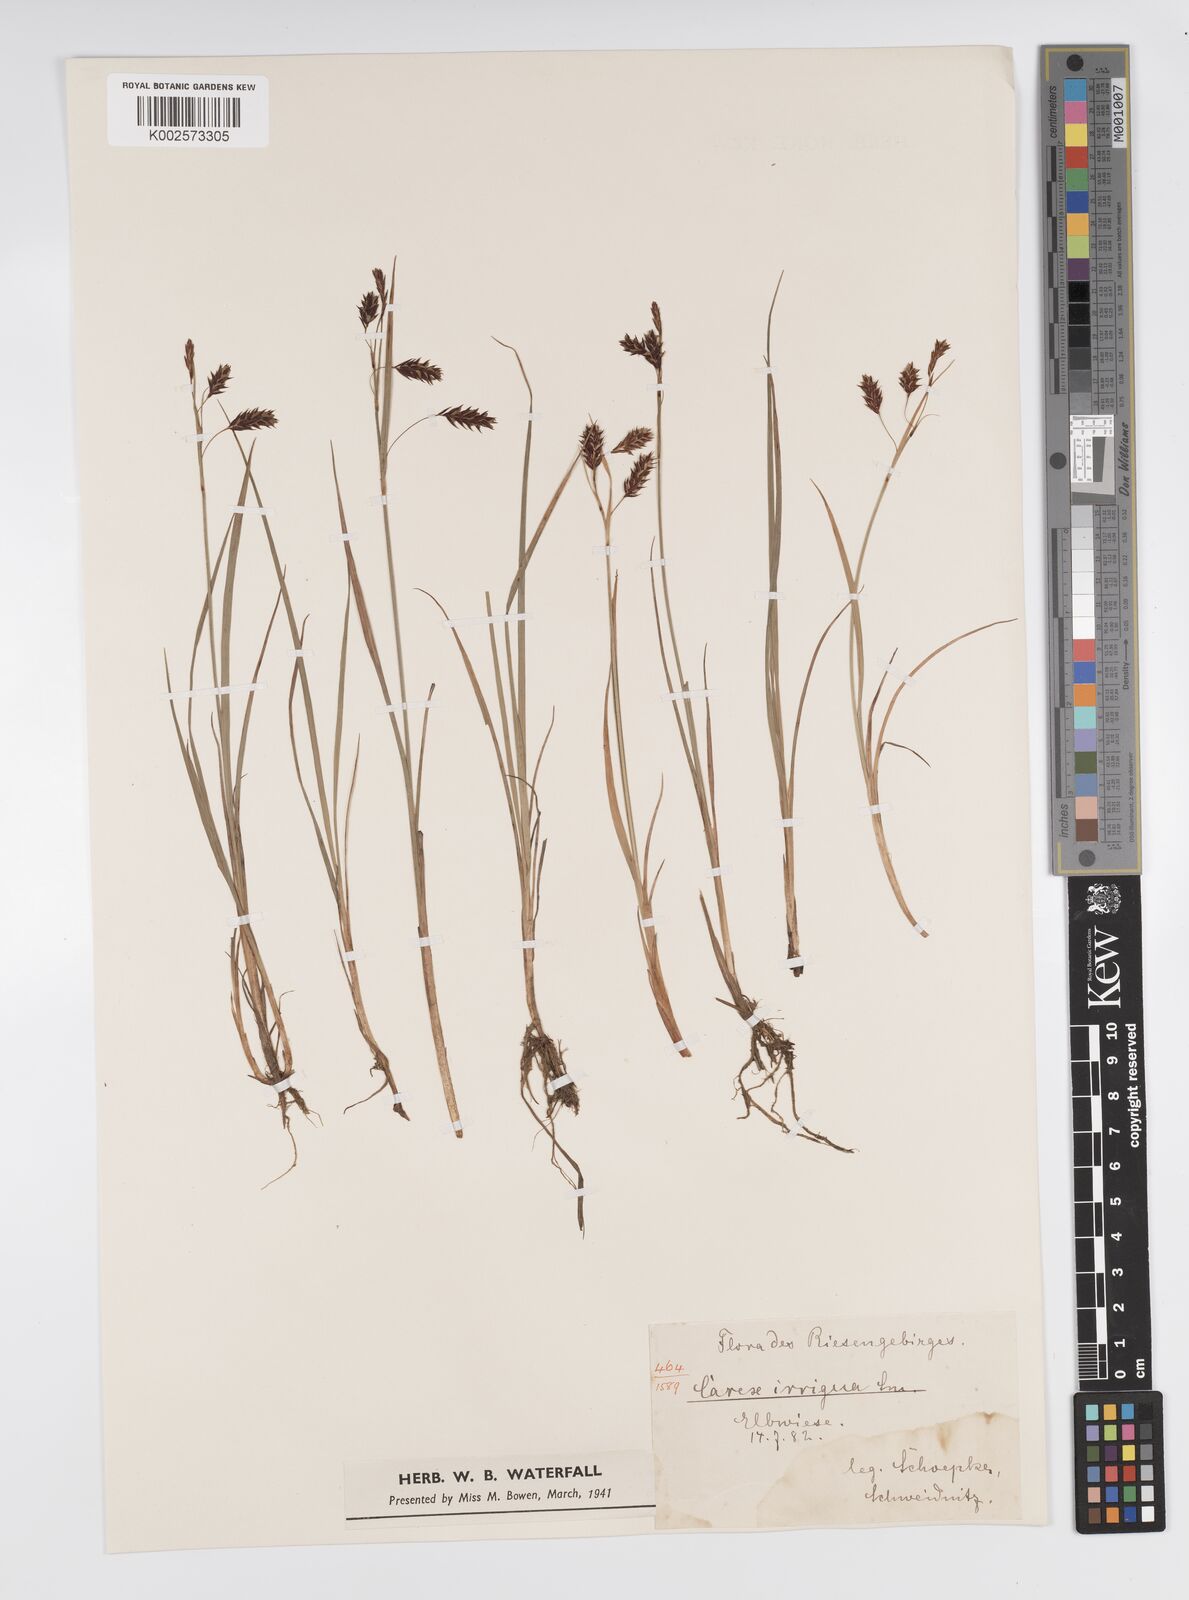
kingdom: Plantae
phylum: Tracheophyta
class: Liliopsida
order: Poales
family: Cyperaceae
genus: Carex
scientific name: Carex magellanica
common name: Bog sedge
